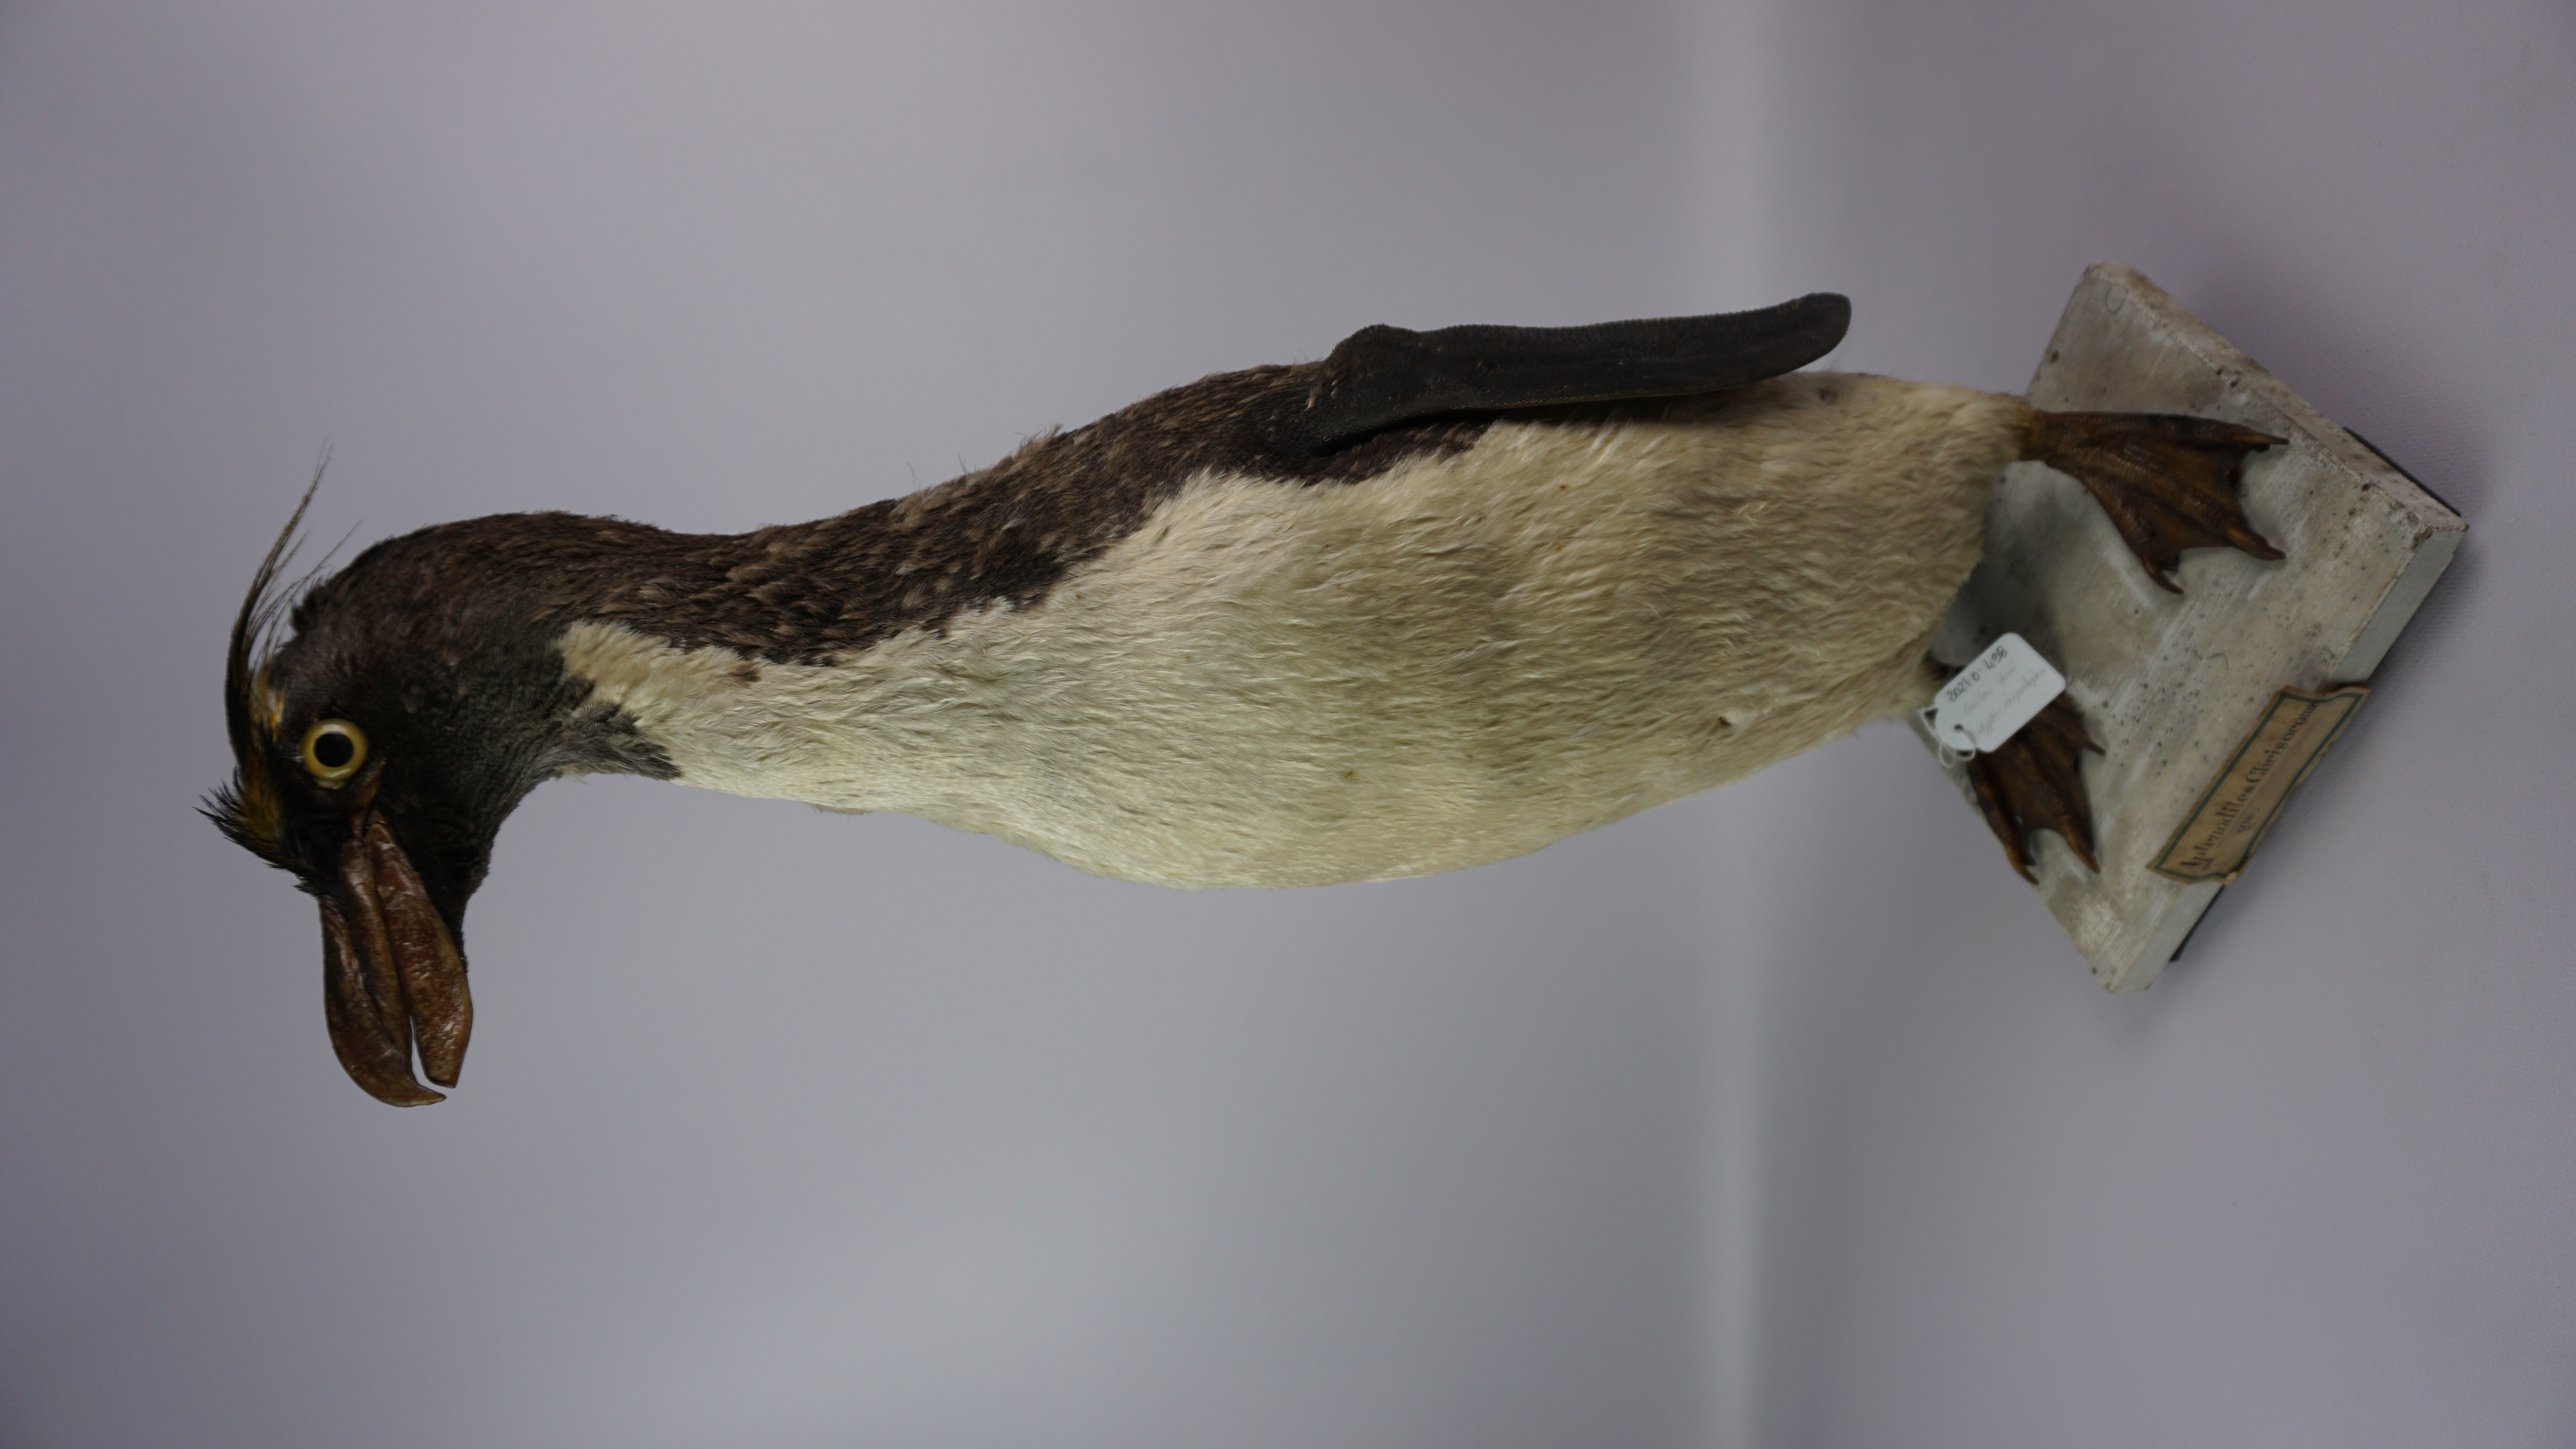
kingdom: Animalia
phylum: Chordata
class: Aves
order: Sphenisciformes
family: Spheniscidae
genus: Eudyptes
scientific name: Eudyptes chrysolophus
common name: Macaroni penguin
